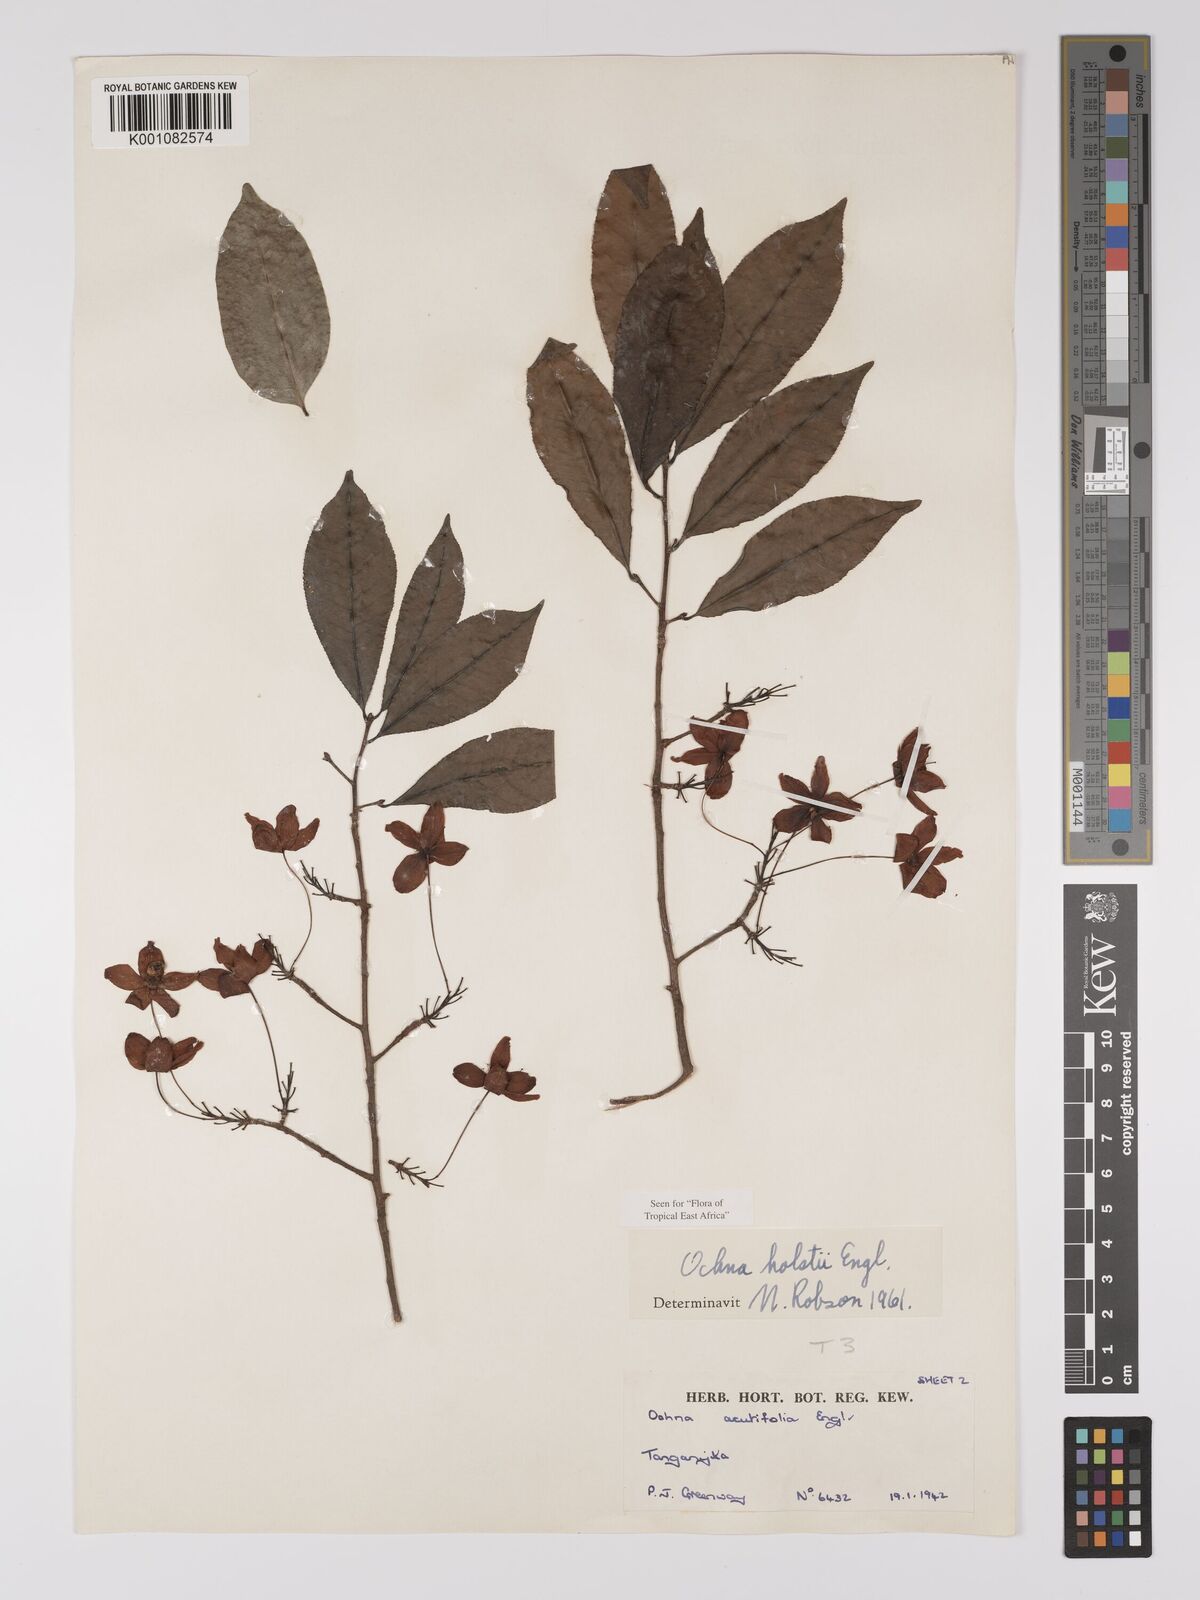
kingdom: Plantae
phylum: Tracheophyta
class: Magnoliopsida
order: Malpighiales
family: Ochnaceae
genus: Ochna
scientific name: Ochna holstii
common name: Red ironwood
